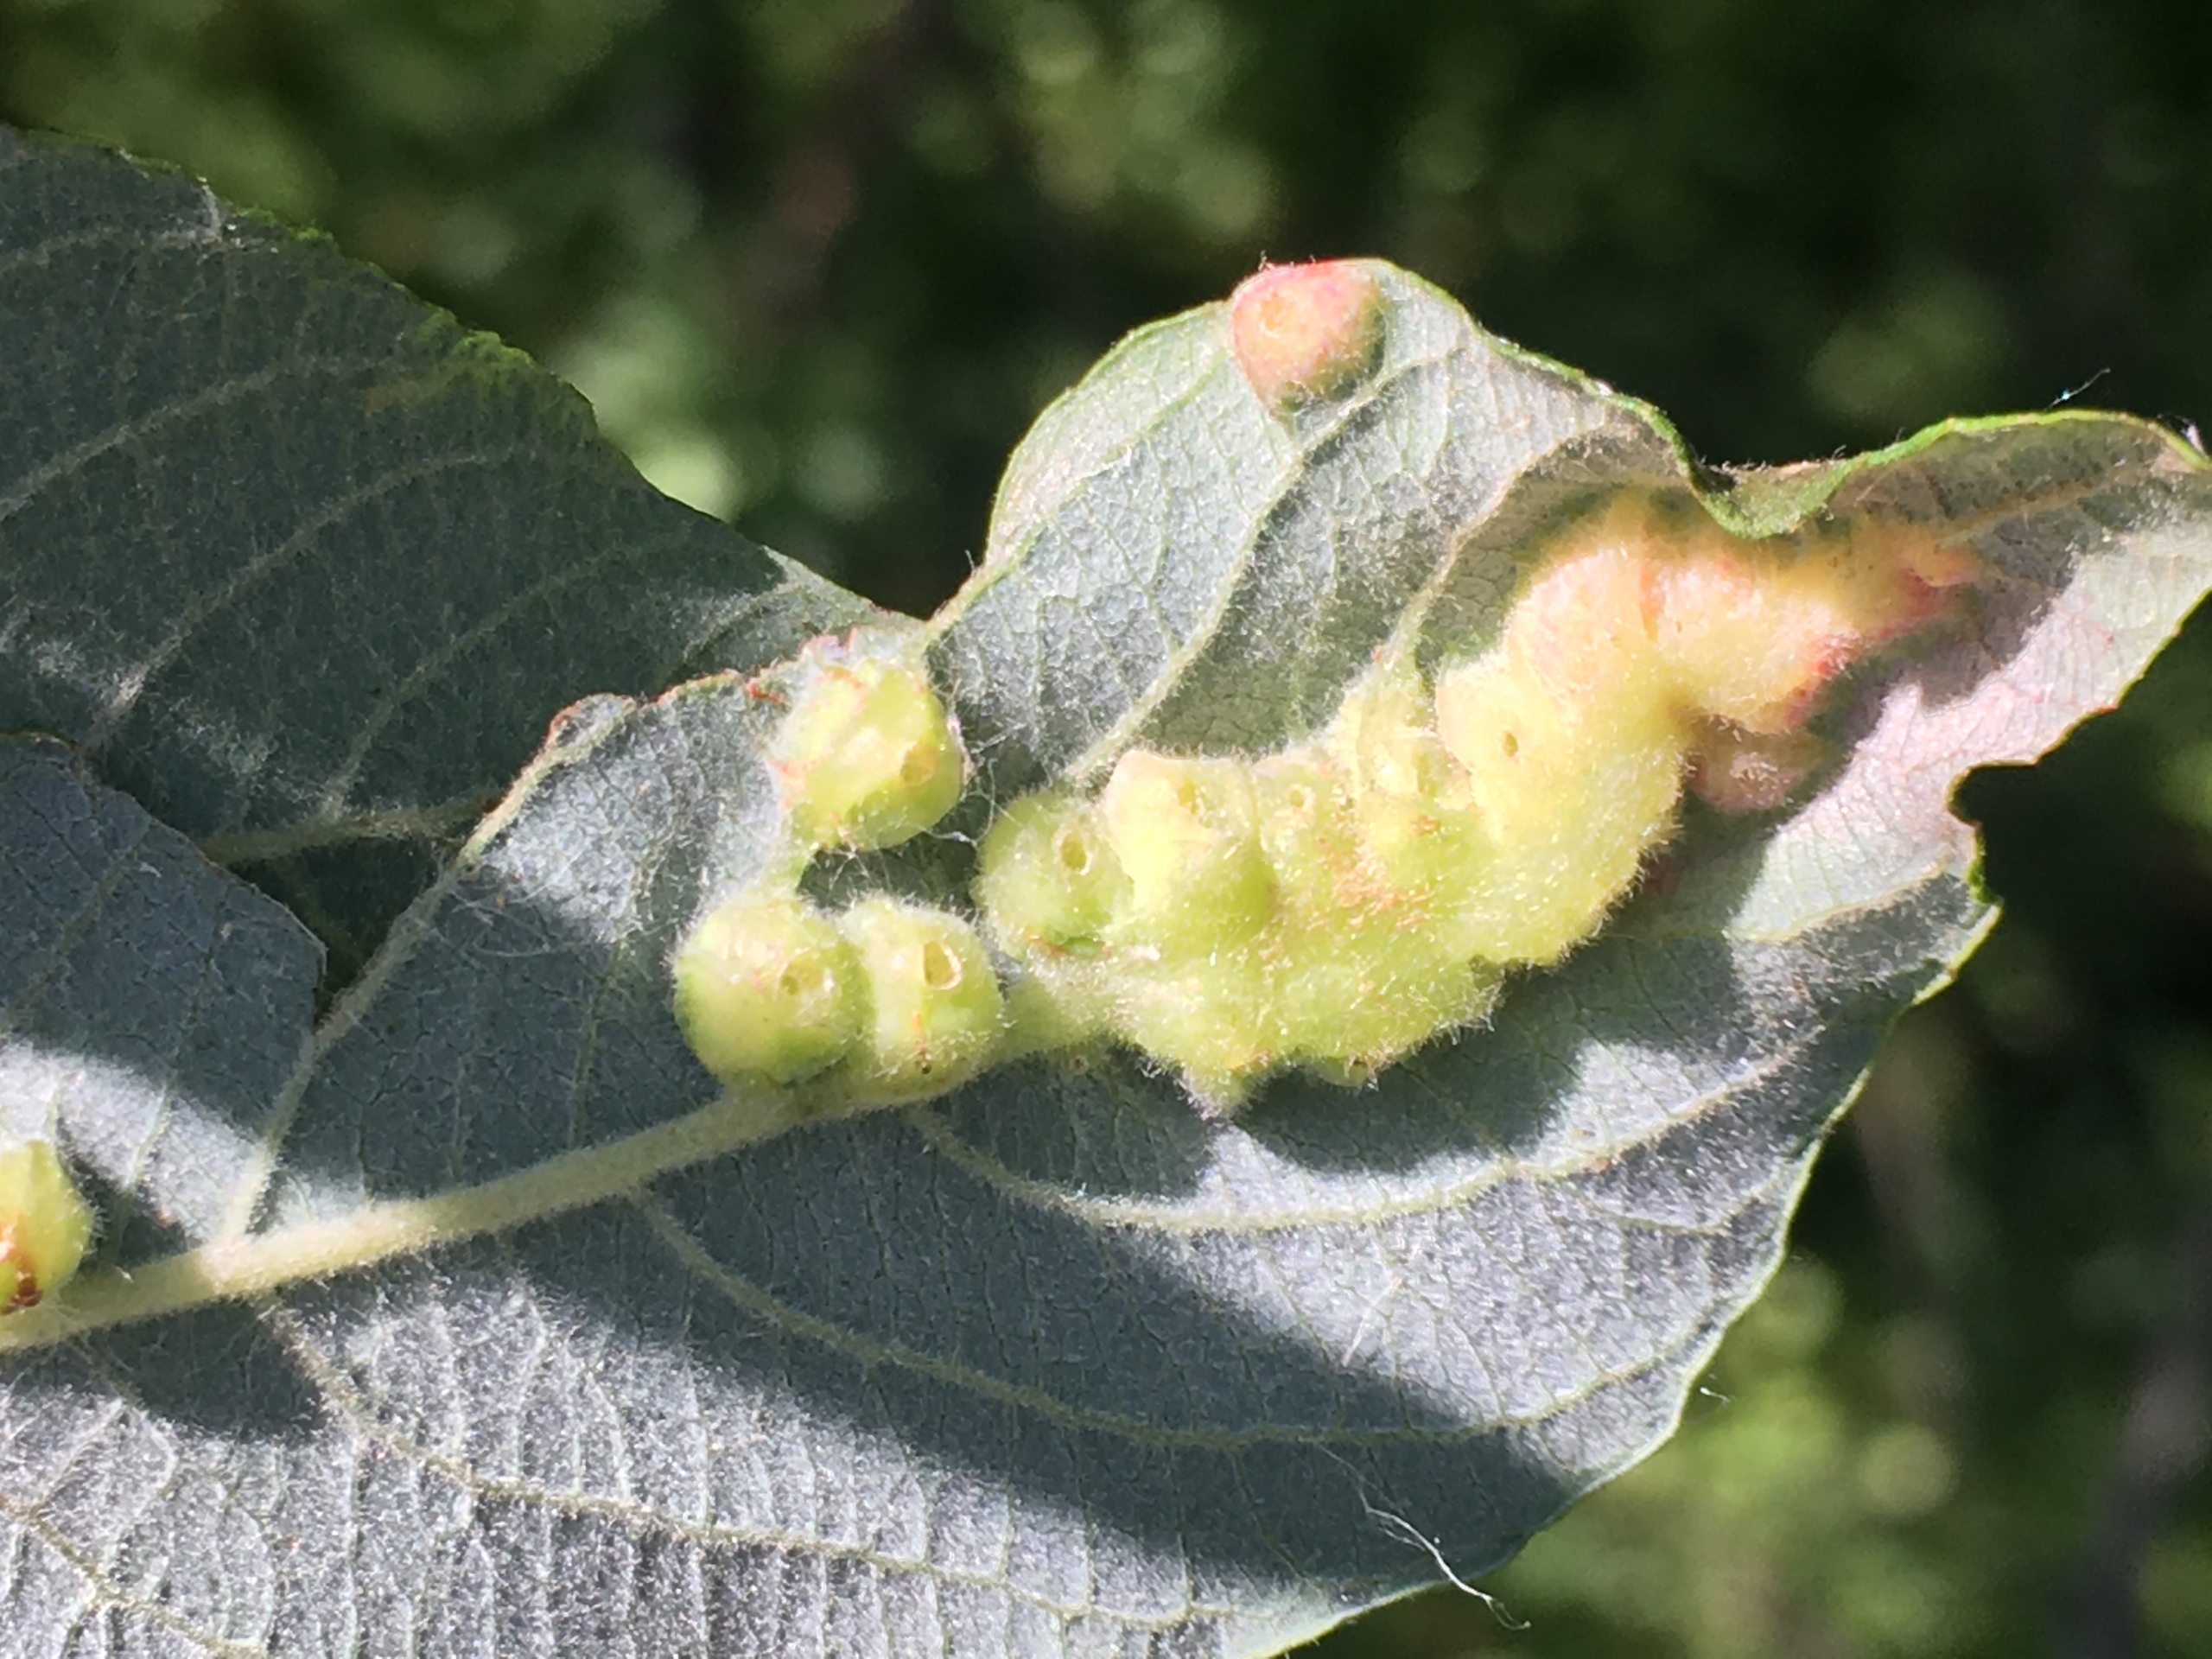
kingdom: Animalia
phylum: Arthropoda
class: Insecta
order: Diptera
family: Cecidomyiidae
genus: Iteomyia
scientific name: Iteomyia major
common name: Stor seljebladgalmyg
